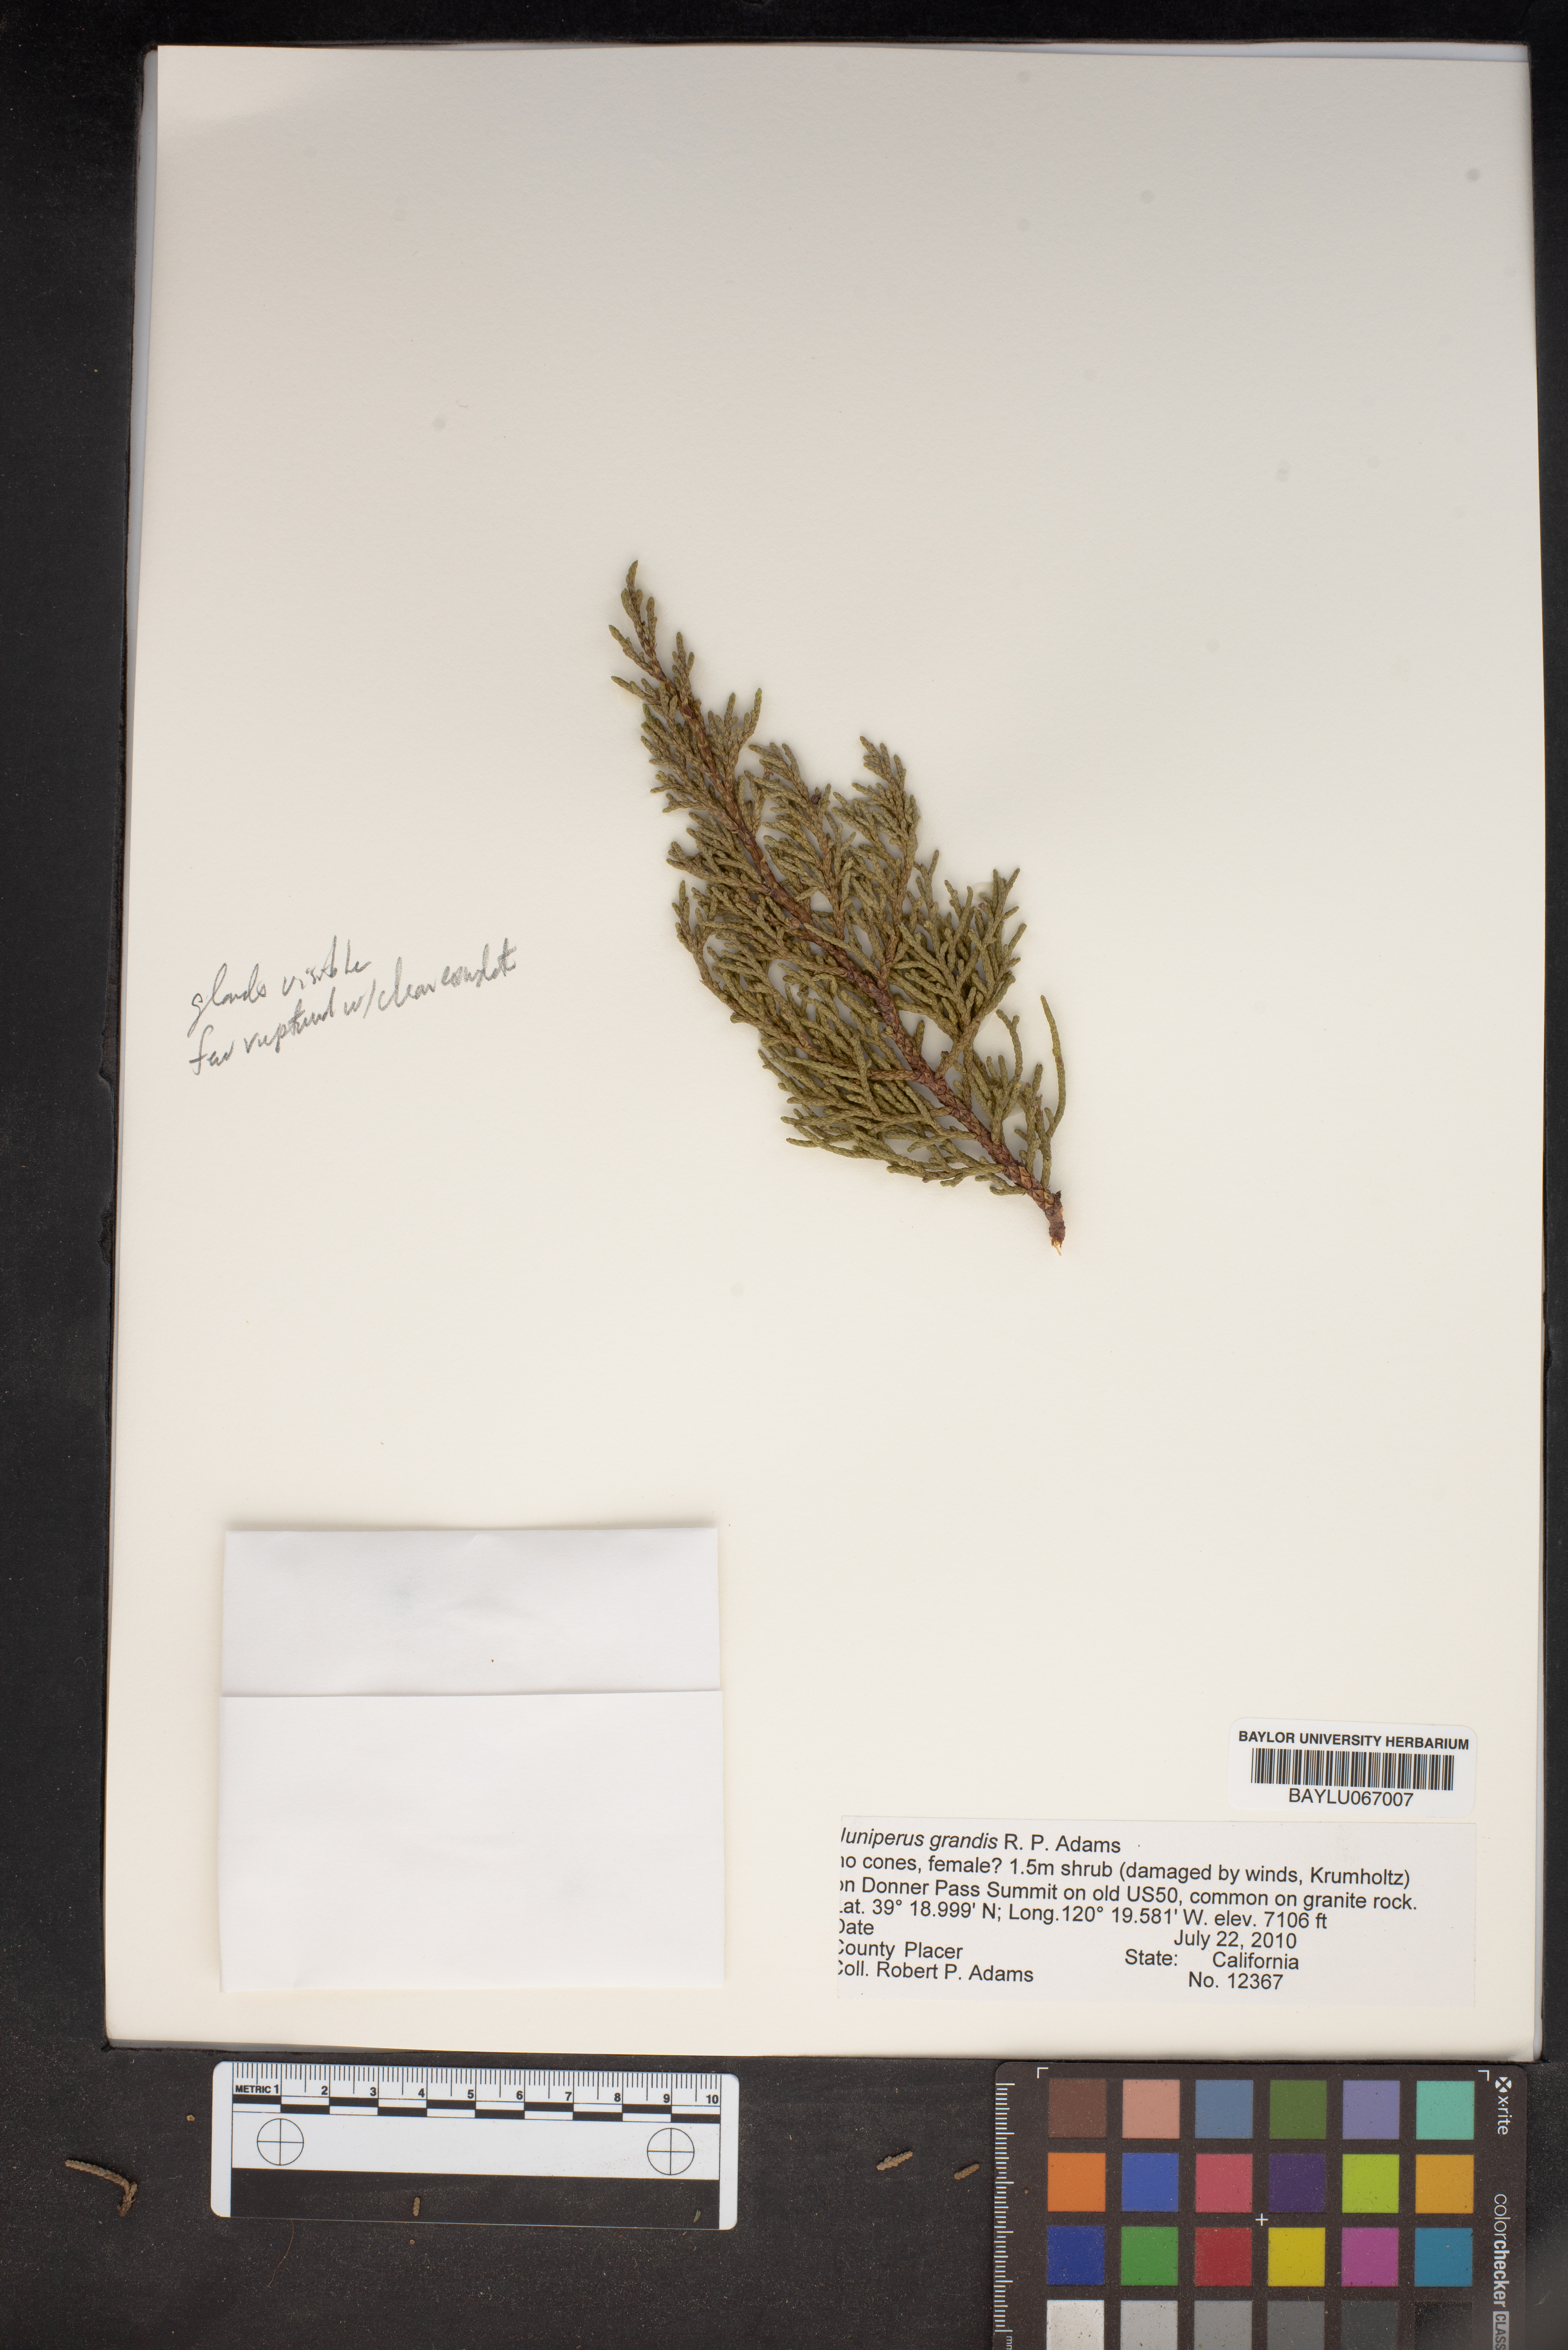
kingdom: Plantae
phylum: Tracheophyta
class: Pinopsida
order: Pinales
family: Cupressaceae
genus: Juniperus
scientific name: Juniperus occidentalis
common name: Western juniper
